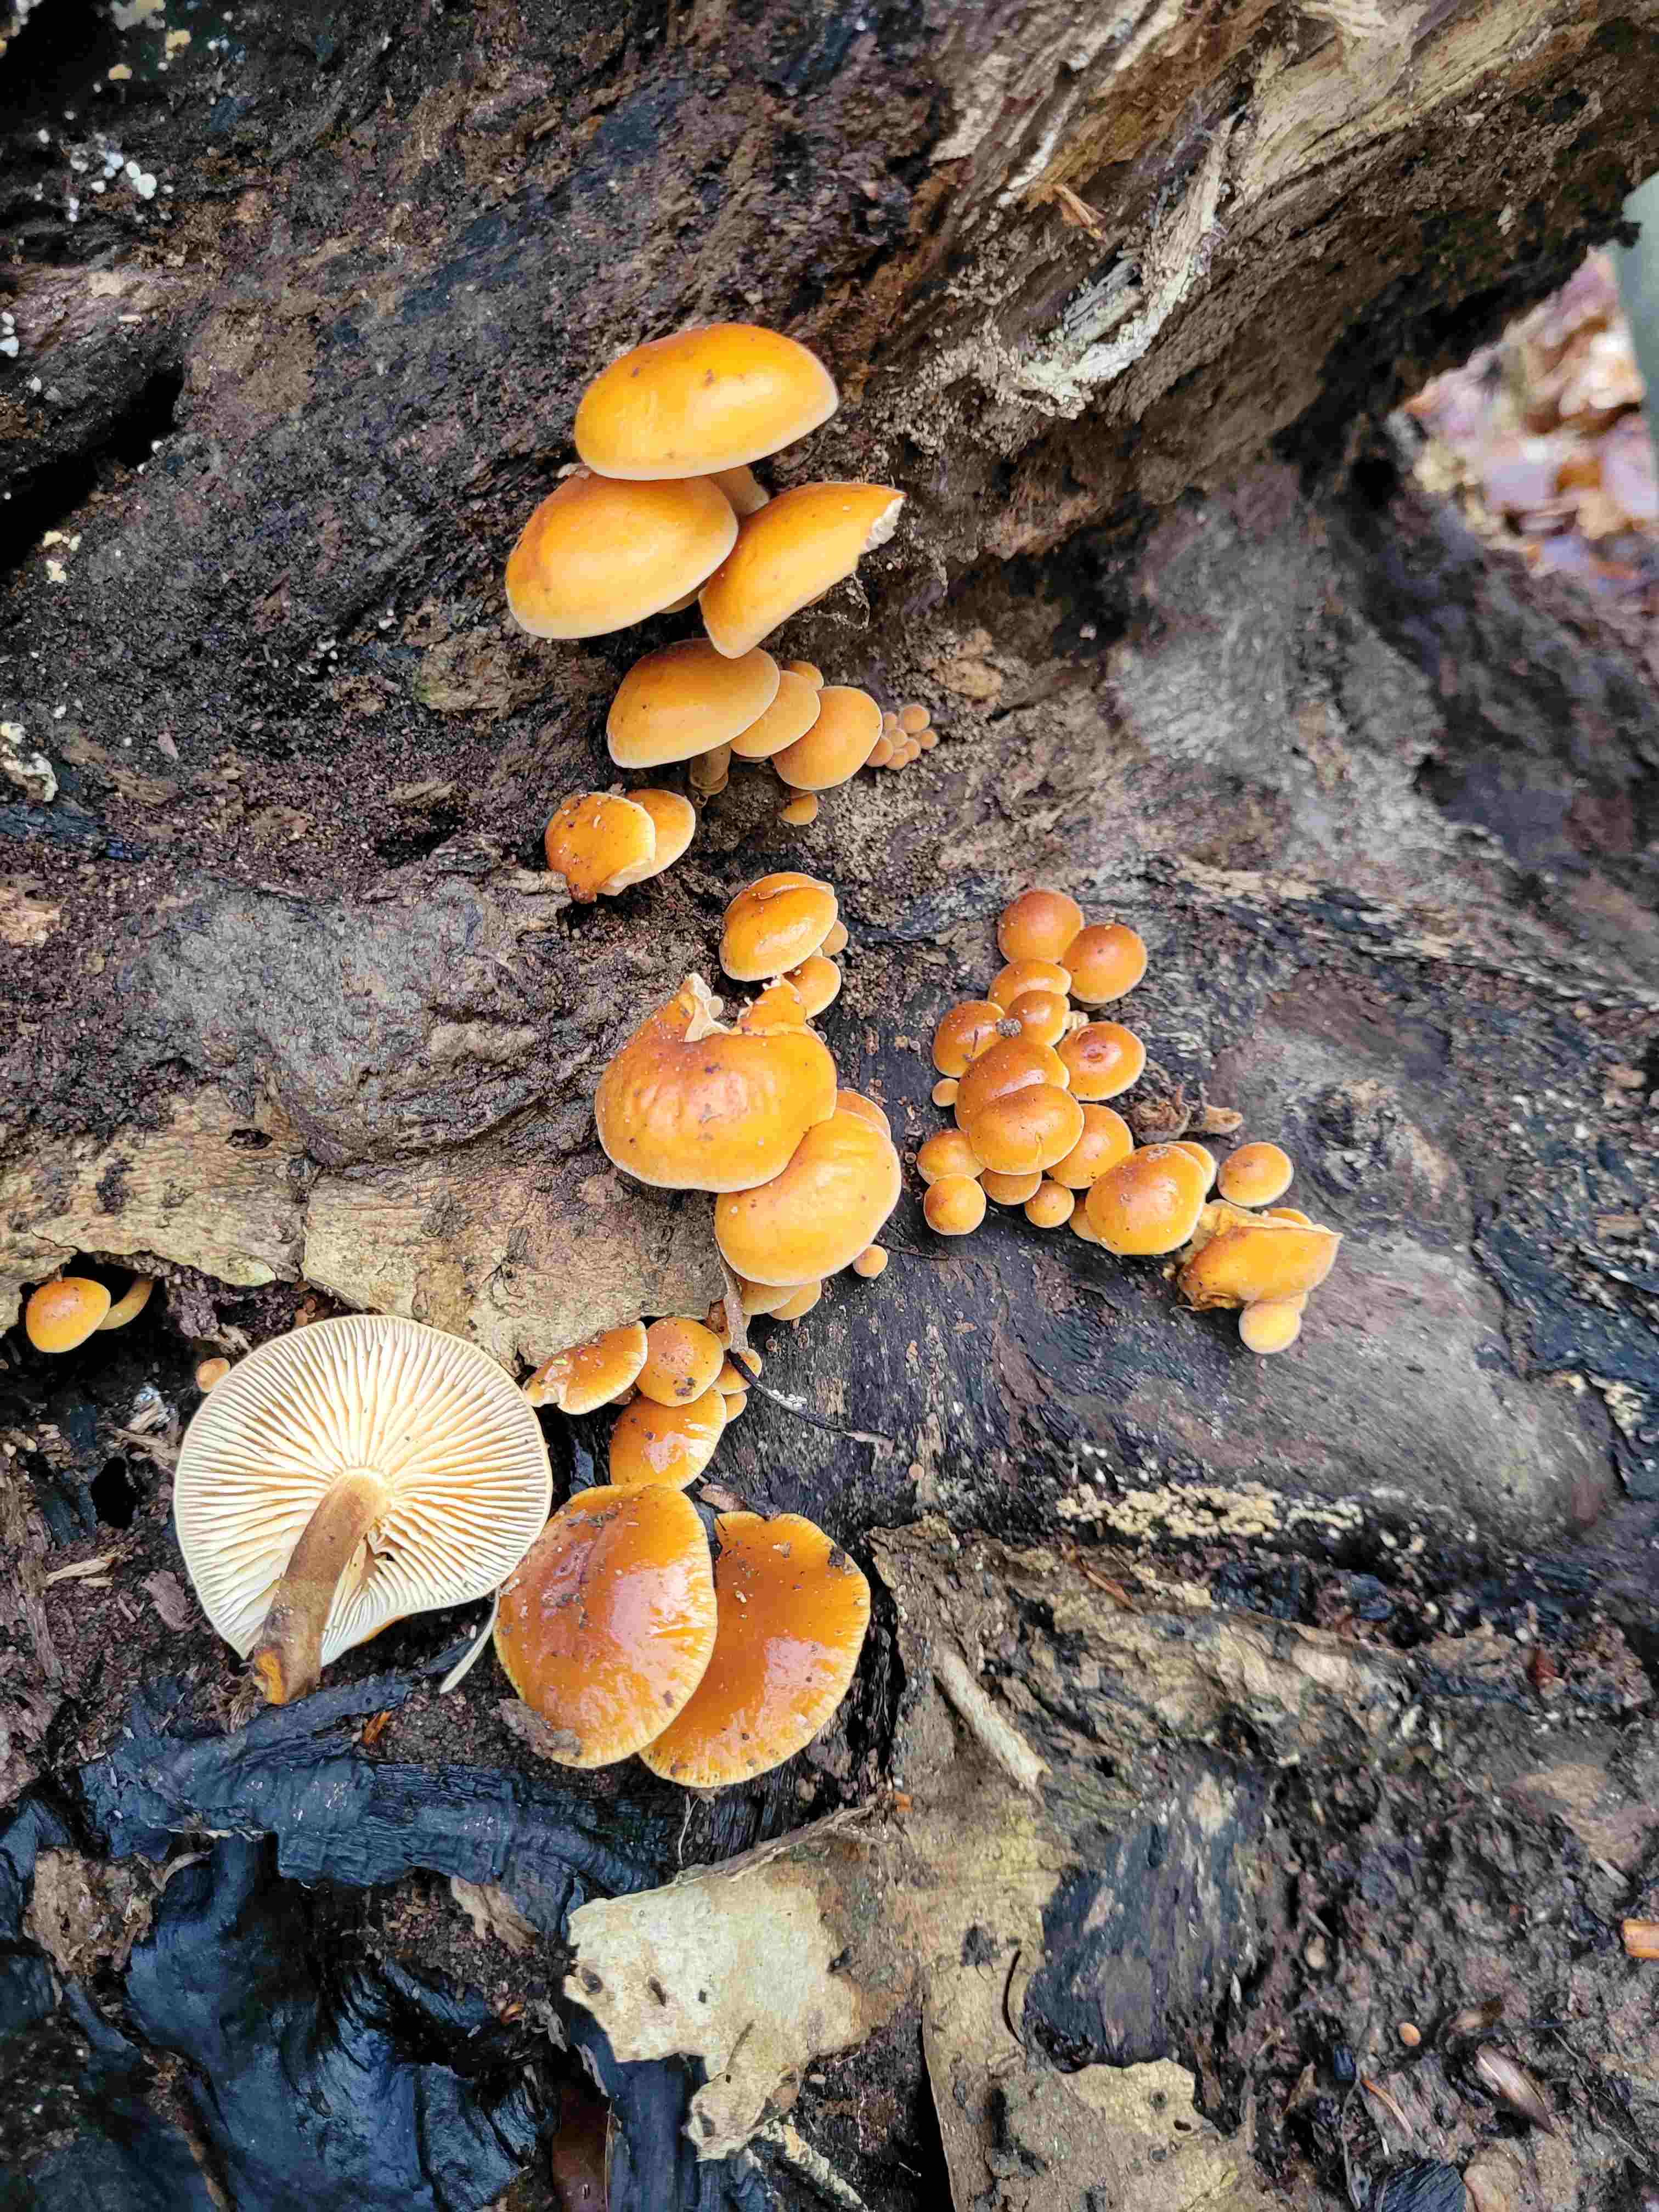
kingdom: Fungi
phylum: Basidiomycota
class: Agaricomycetes
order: Agaricales
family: Physalacriaceae
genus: Flammulina
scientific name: Flammulina velutipes
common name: gul fløjlsfod
